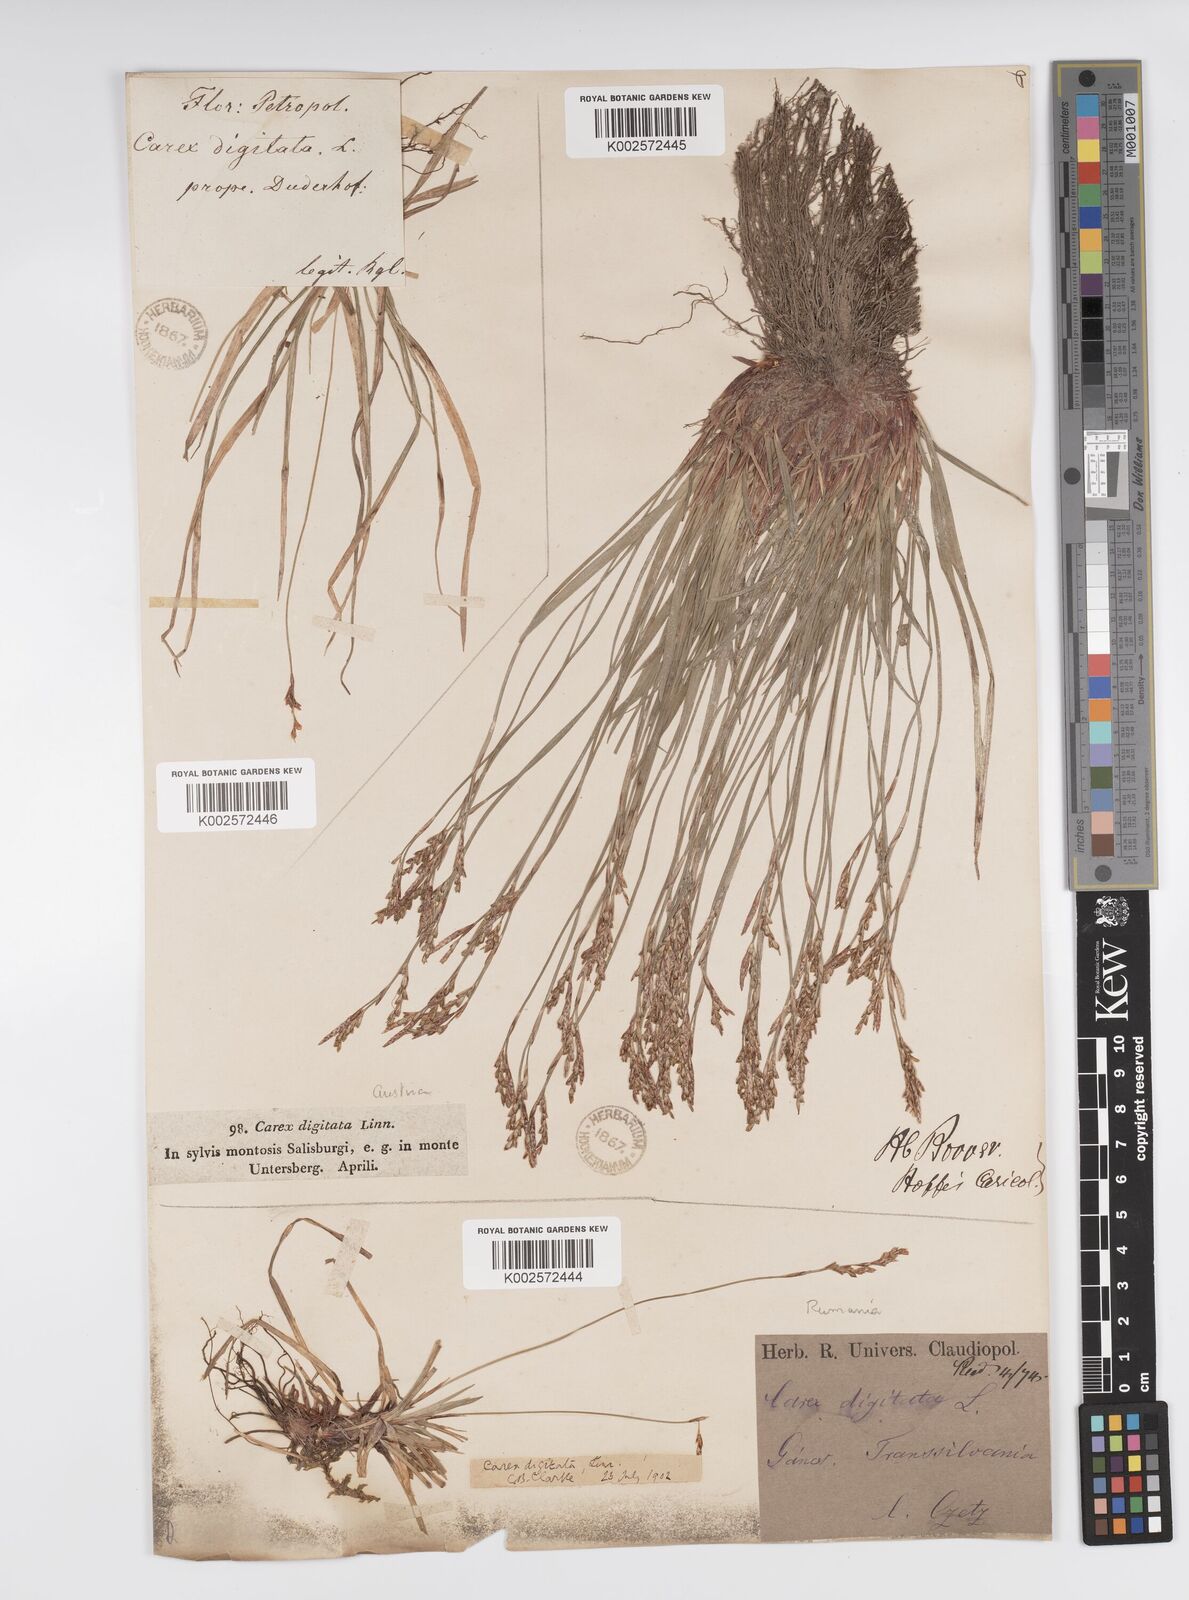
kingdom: Plantae
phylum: Tracheophyta
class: Liliopsida
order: Poales
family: Cyperaceae
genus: Carex
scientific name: Carex digitata
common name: Fingered sedge
